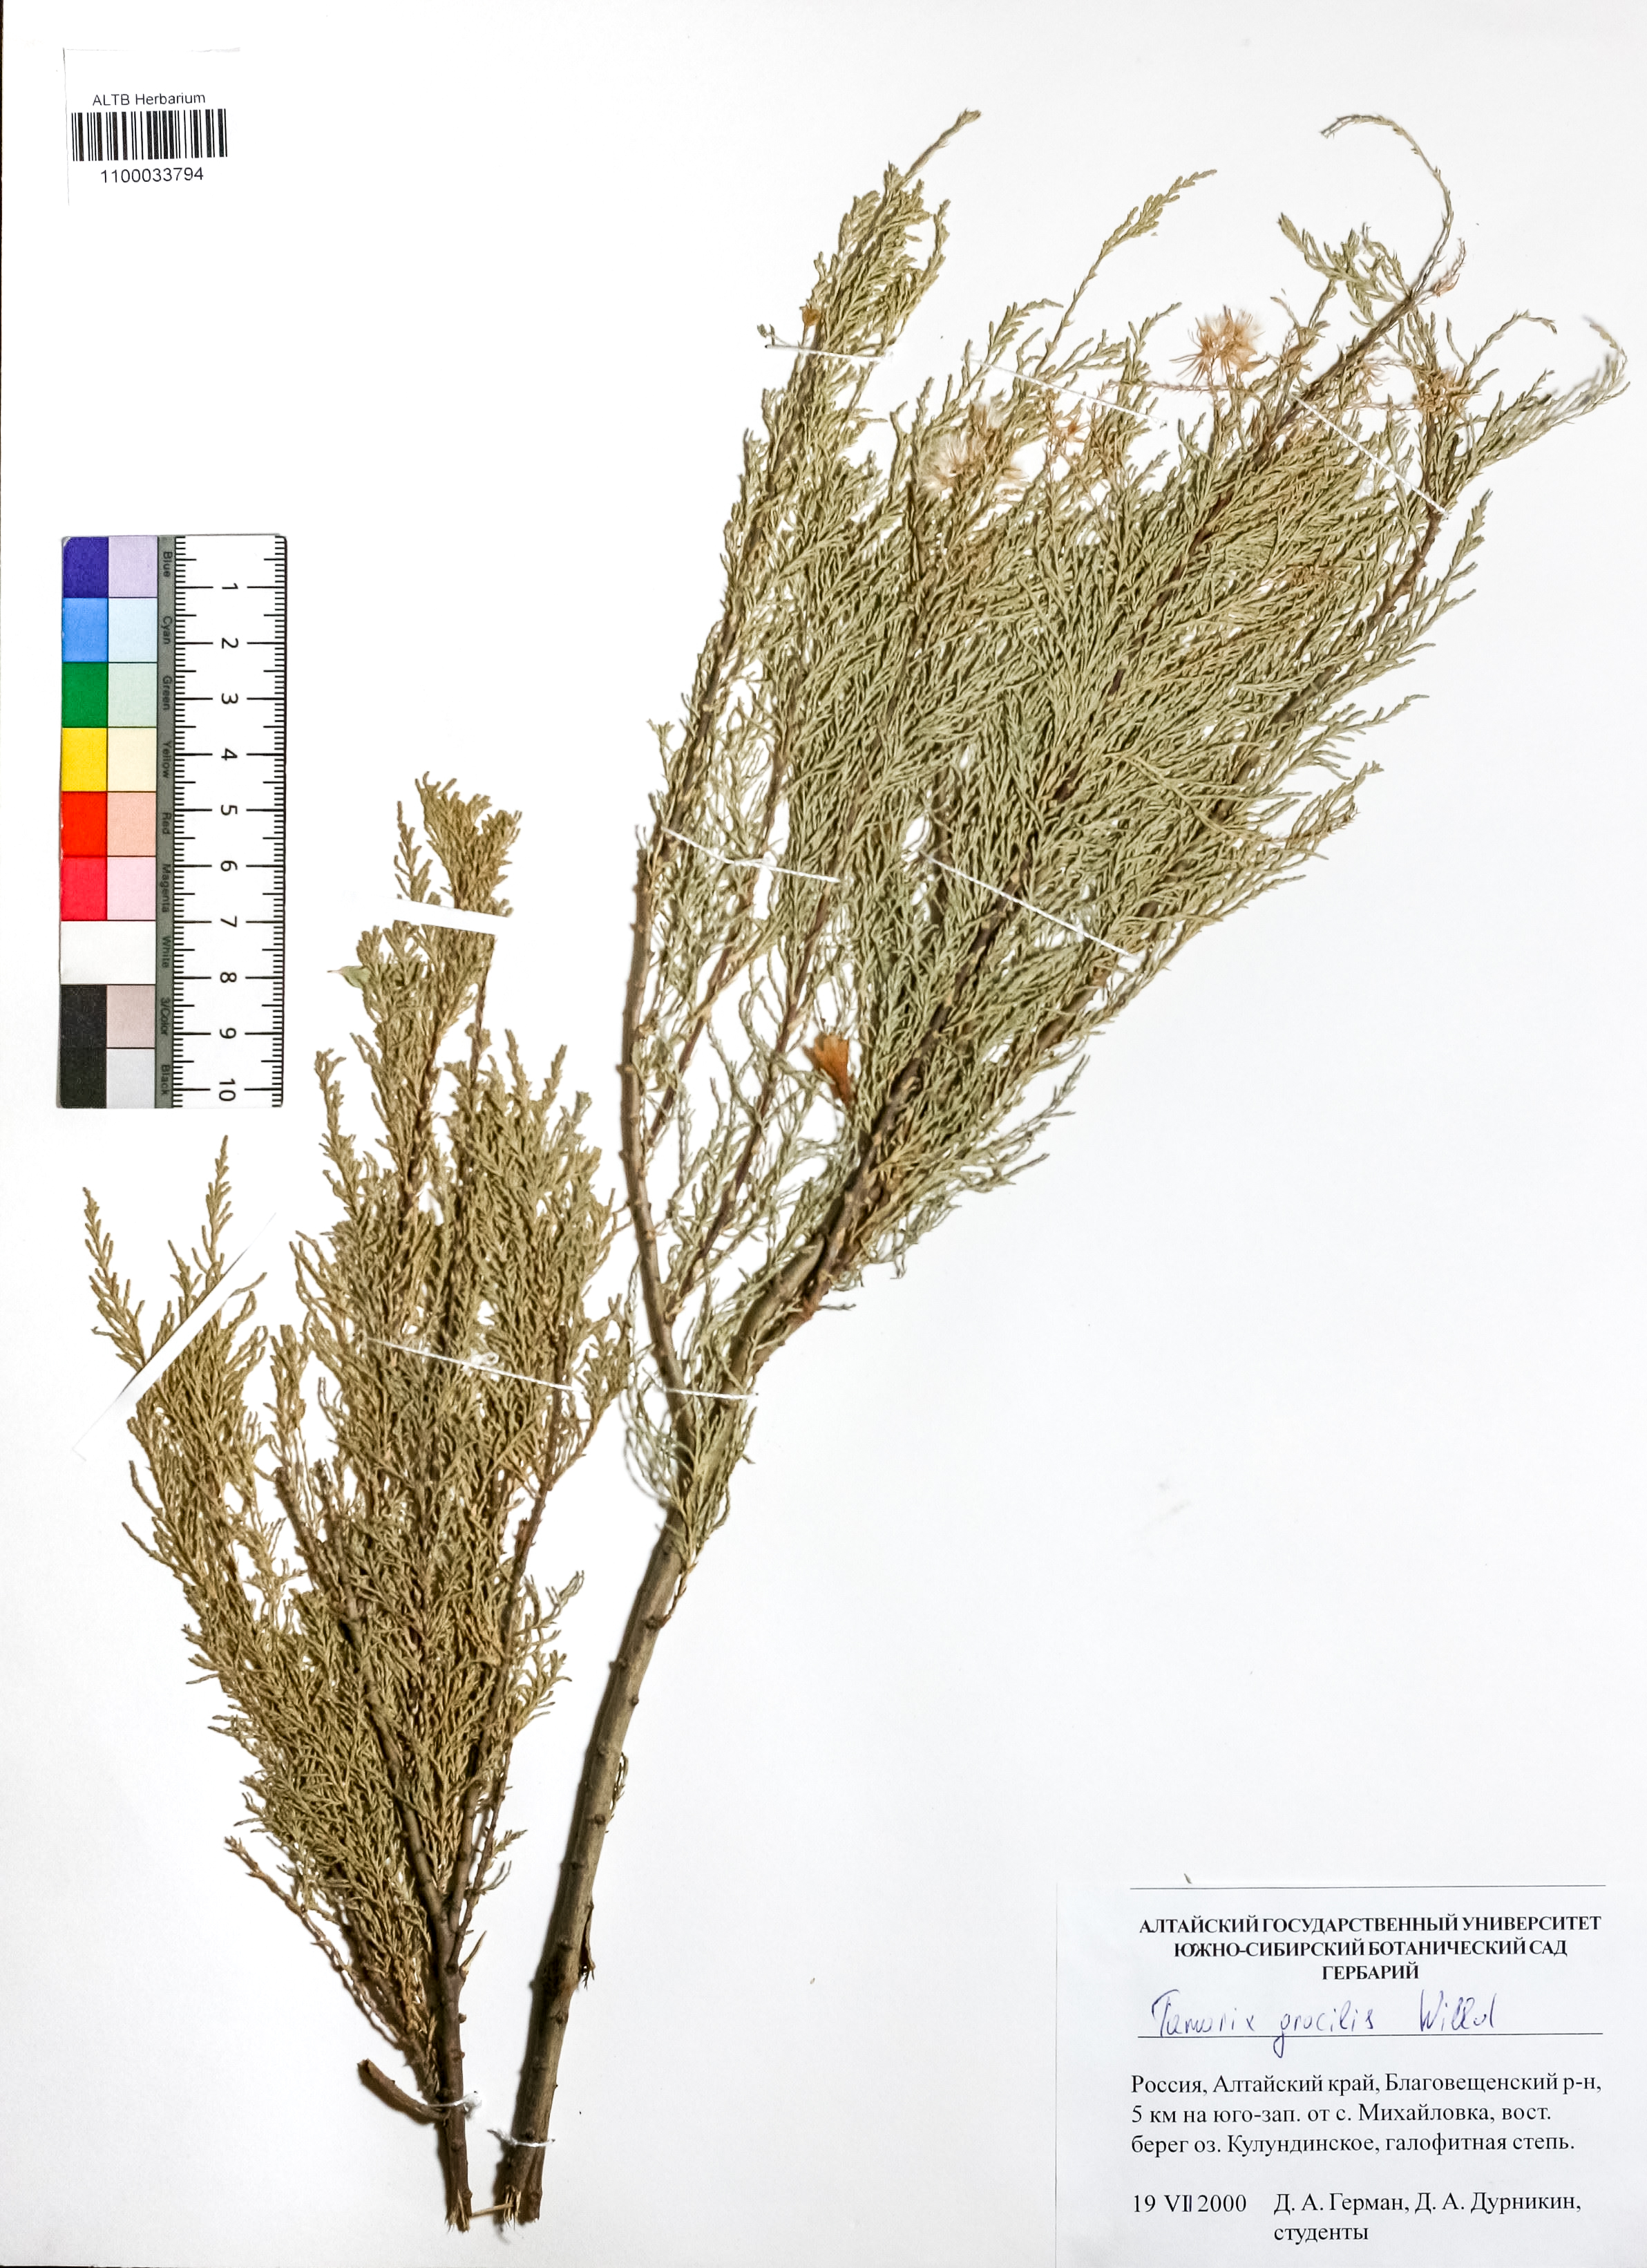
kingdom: Plantae
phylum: Tracheophyta
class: Magnoliopsida
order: Caryophyllales
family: Tamaricaceae
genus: Tamarix
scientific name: Tamarix gracilis
